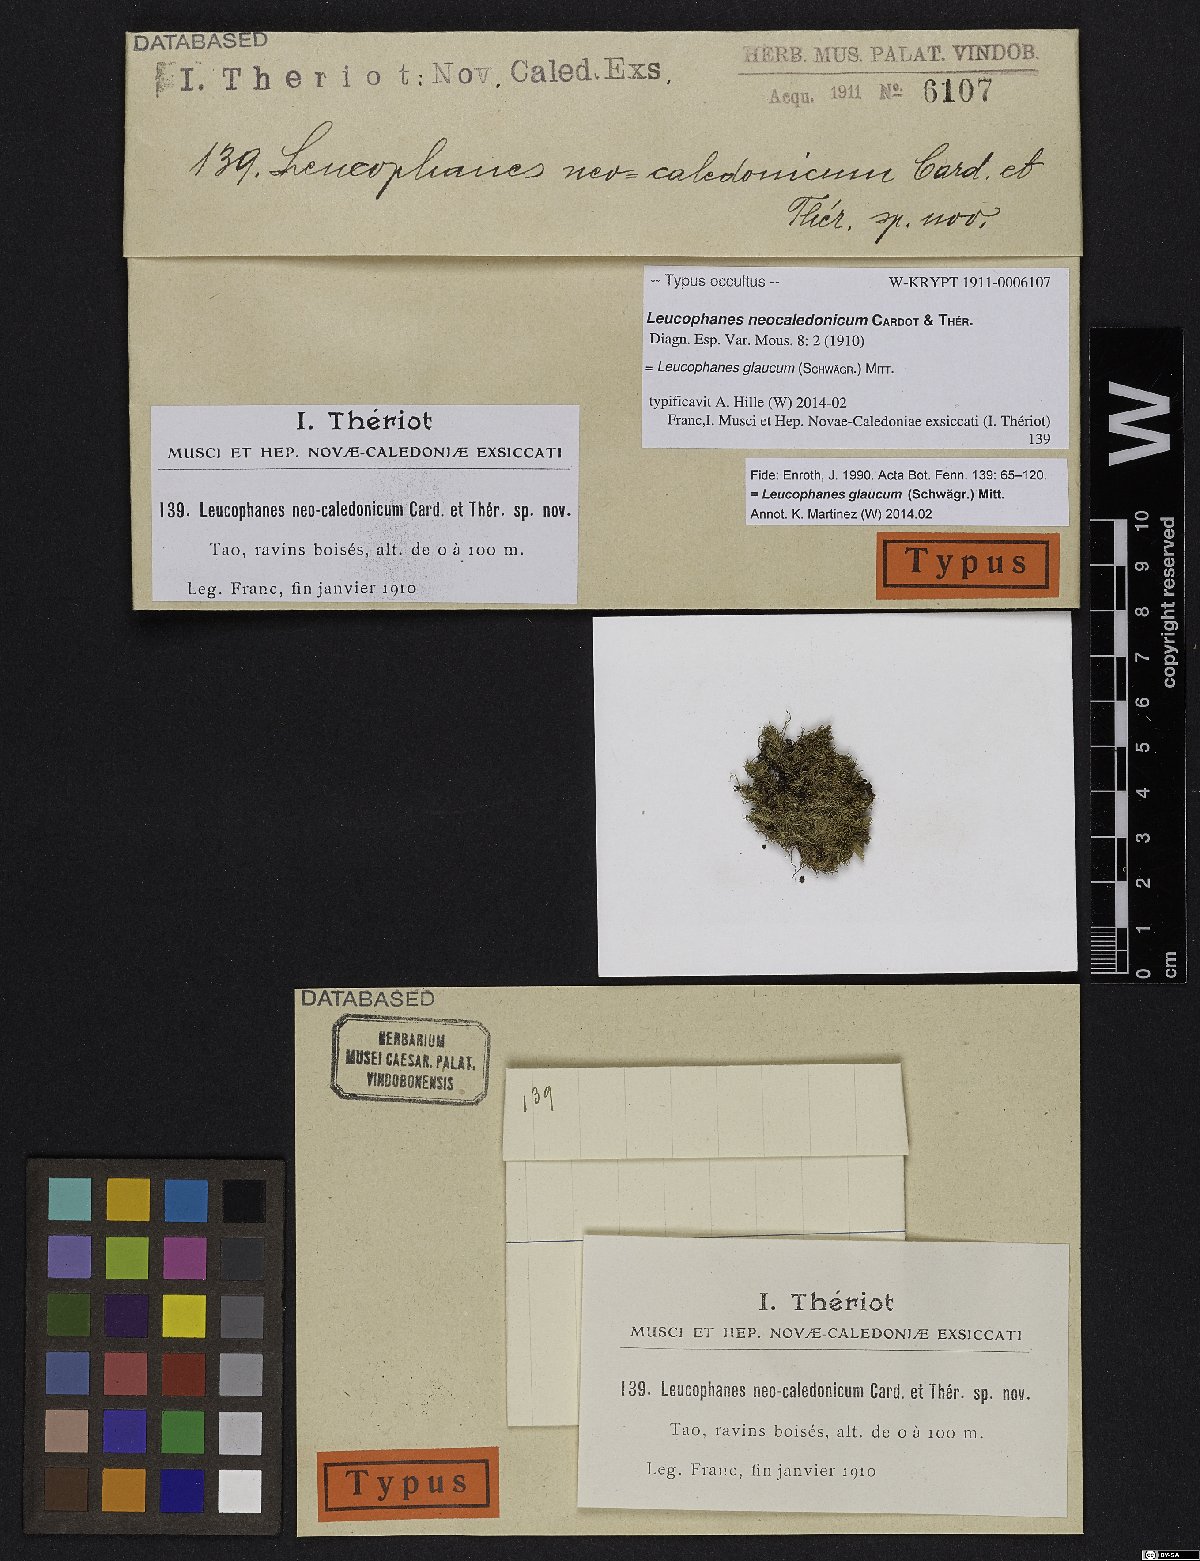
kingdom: Plantae
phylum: Bryophyta
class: Bryopsida
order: Dicranales
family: Calymperaceae
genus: Leucophanes
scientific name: Leucophanes glaucum
